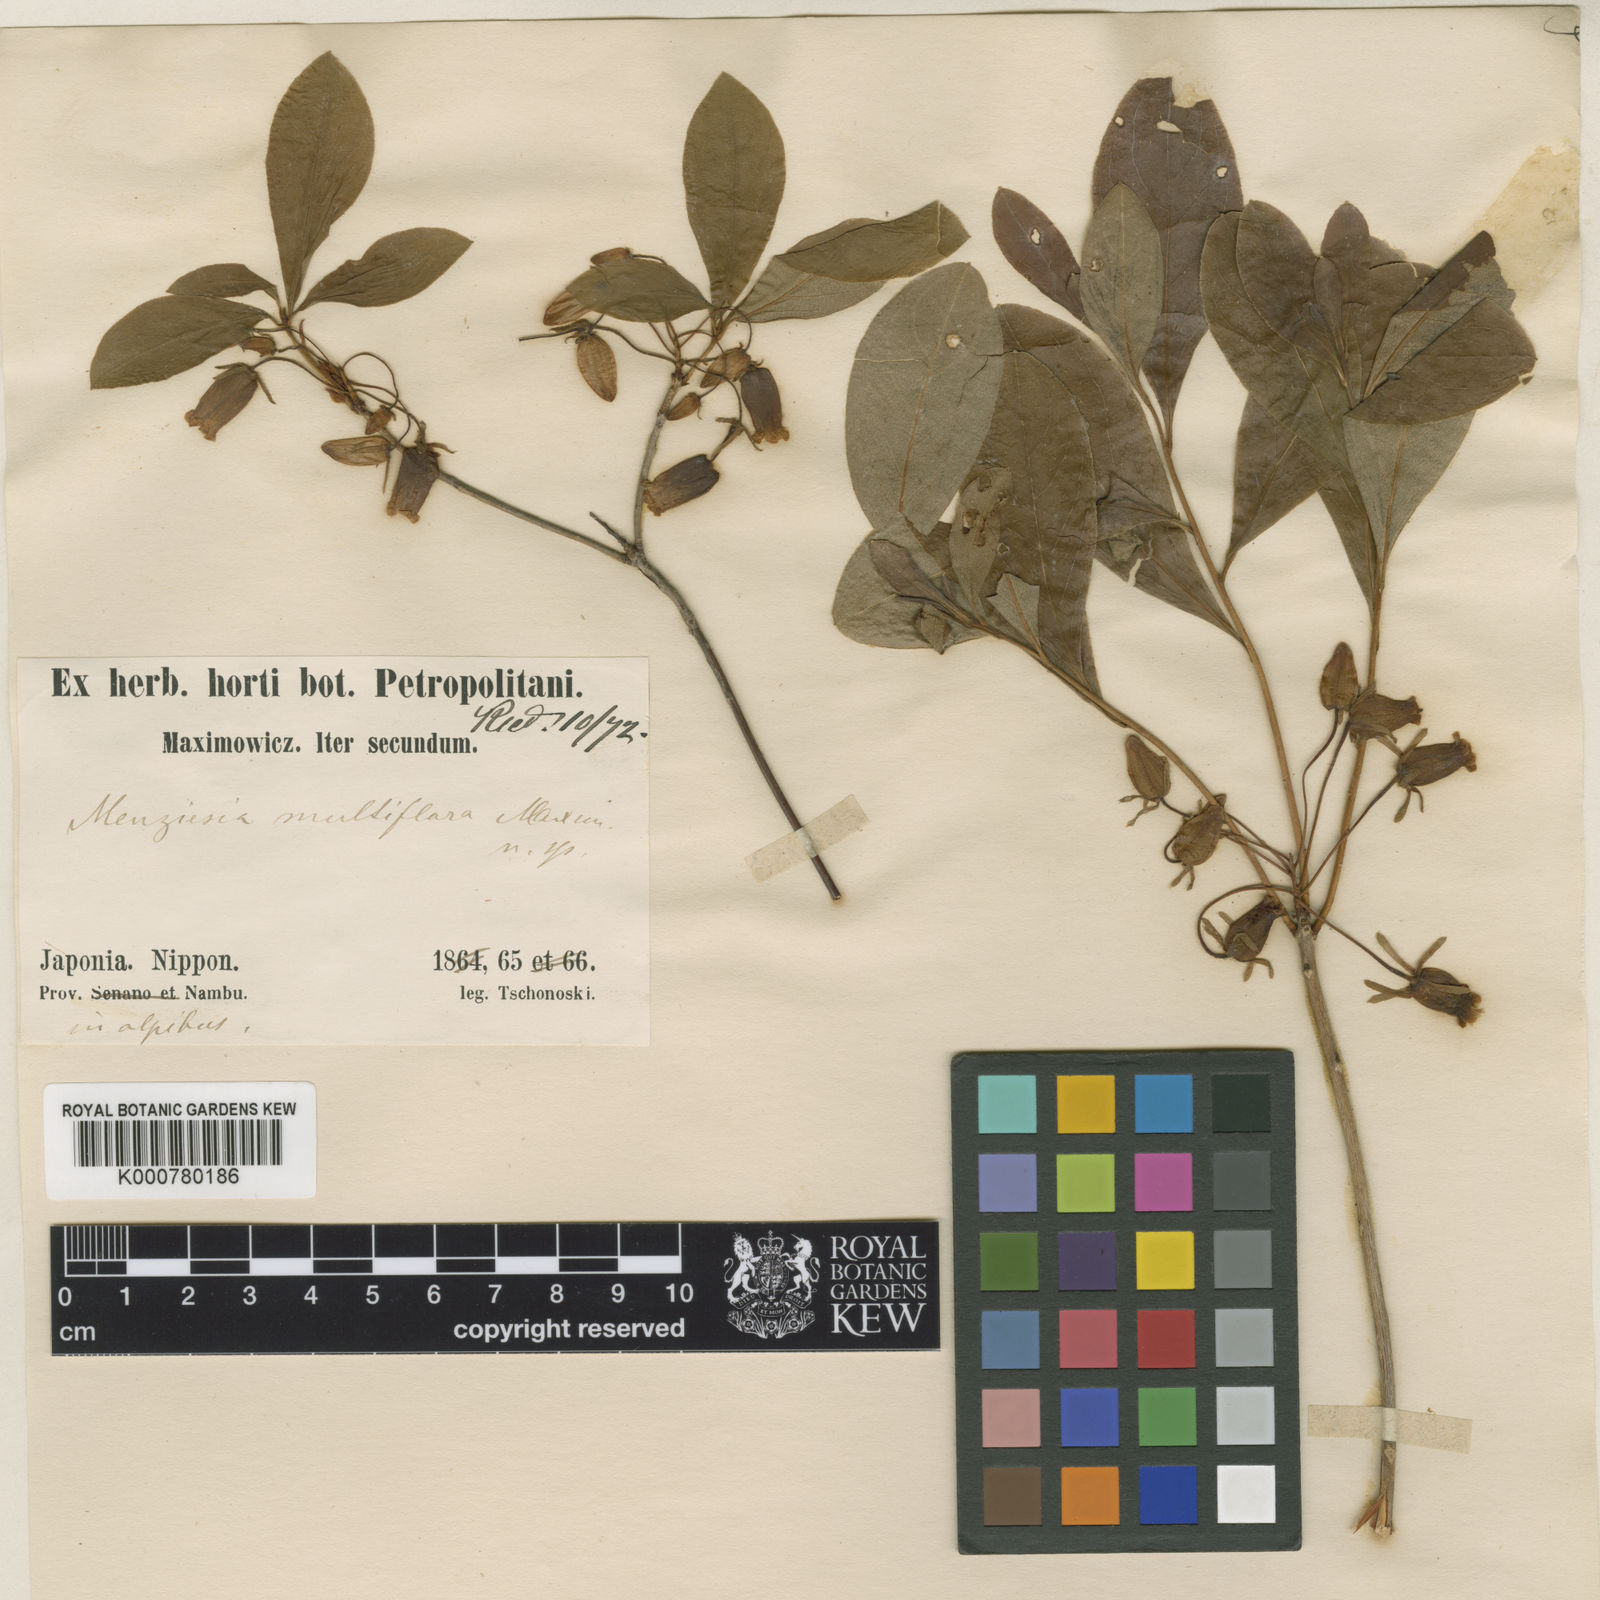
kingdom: Plantae
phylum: Tracheophyta
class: Magnoliopsida
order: Ericales
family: Ericaceae
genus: Rhododendron
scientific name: Rhododendron multiflorum
